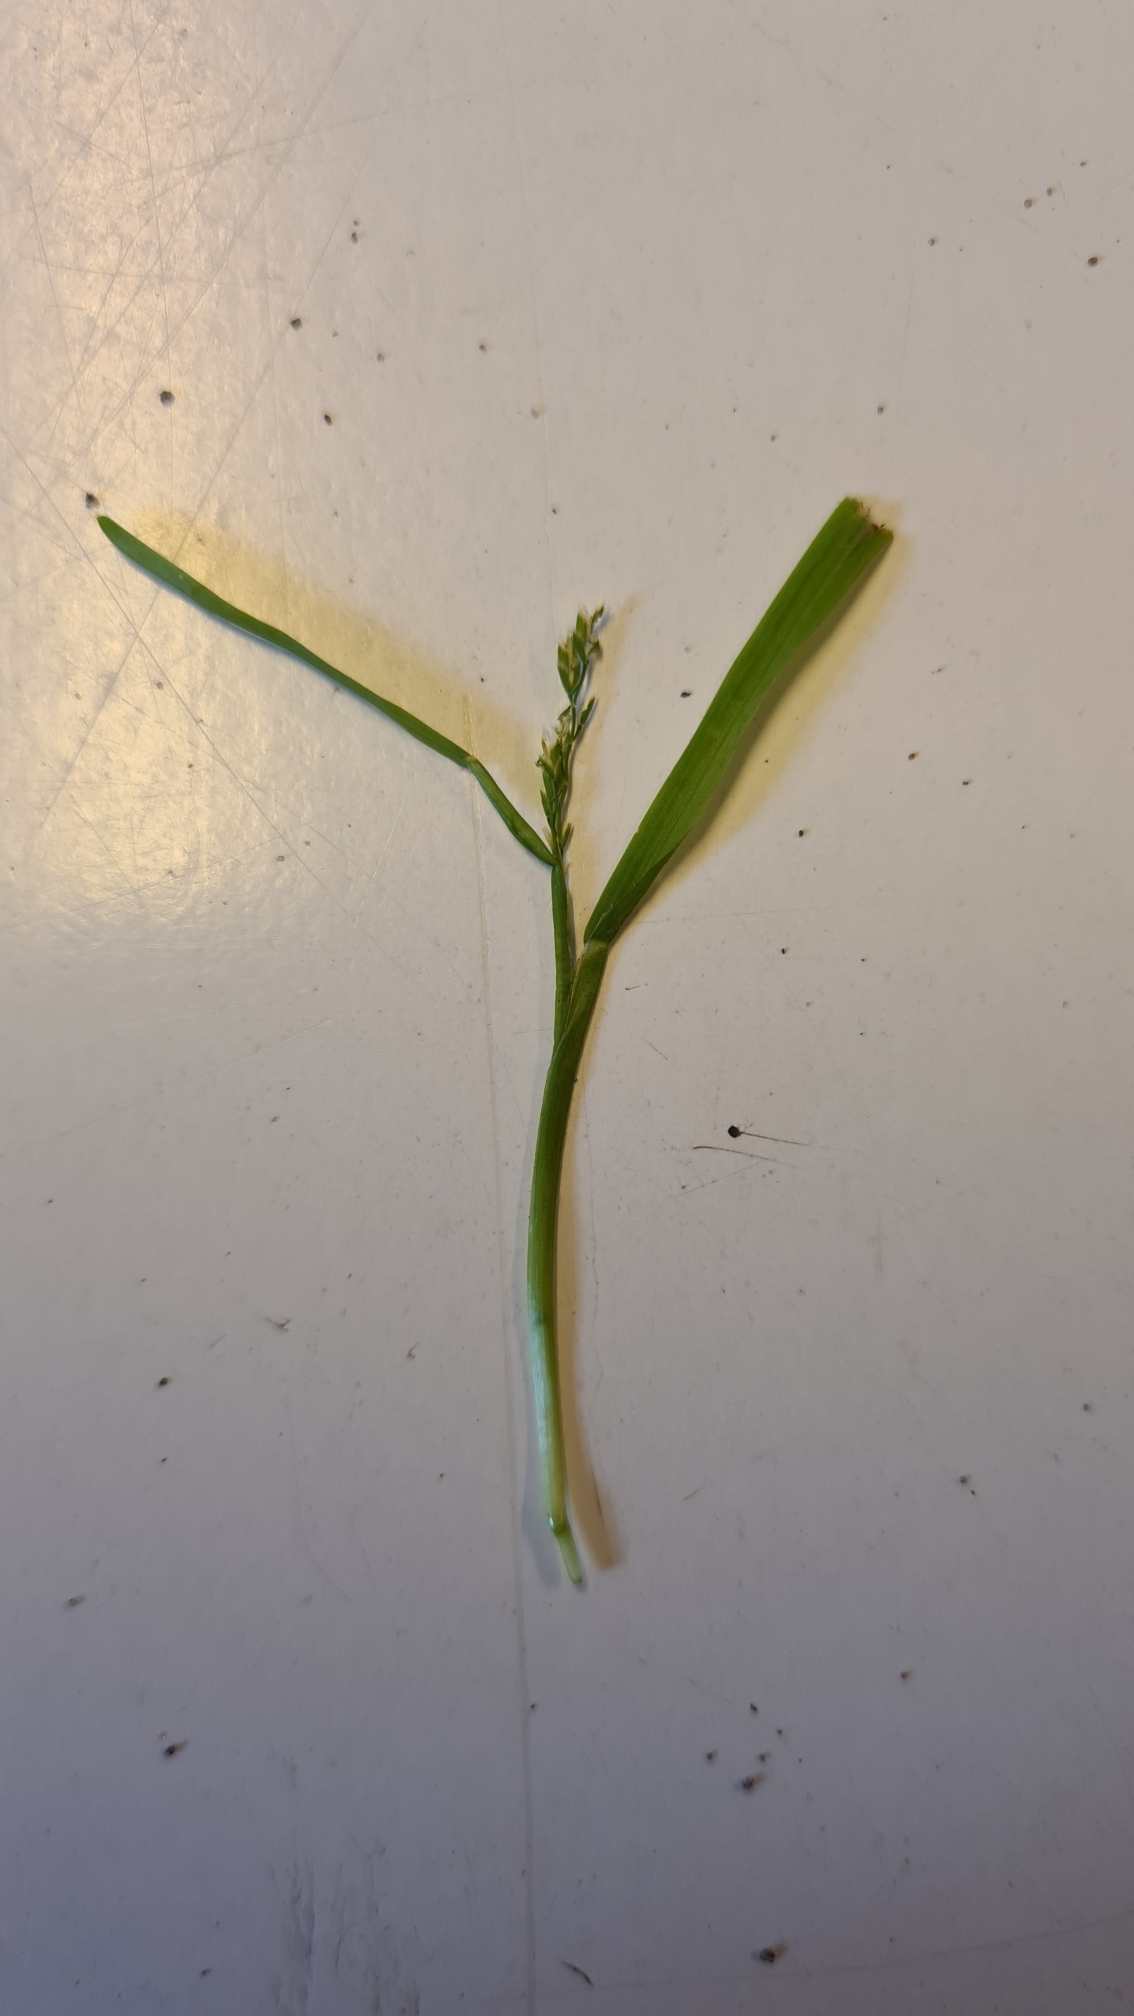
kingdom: Plantae
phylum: Tracheophyta
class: Liliopsida
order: Poales
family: Poaceae
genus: Poa
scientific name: Poa annua
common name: Enårig rapgræs
